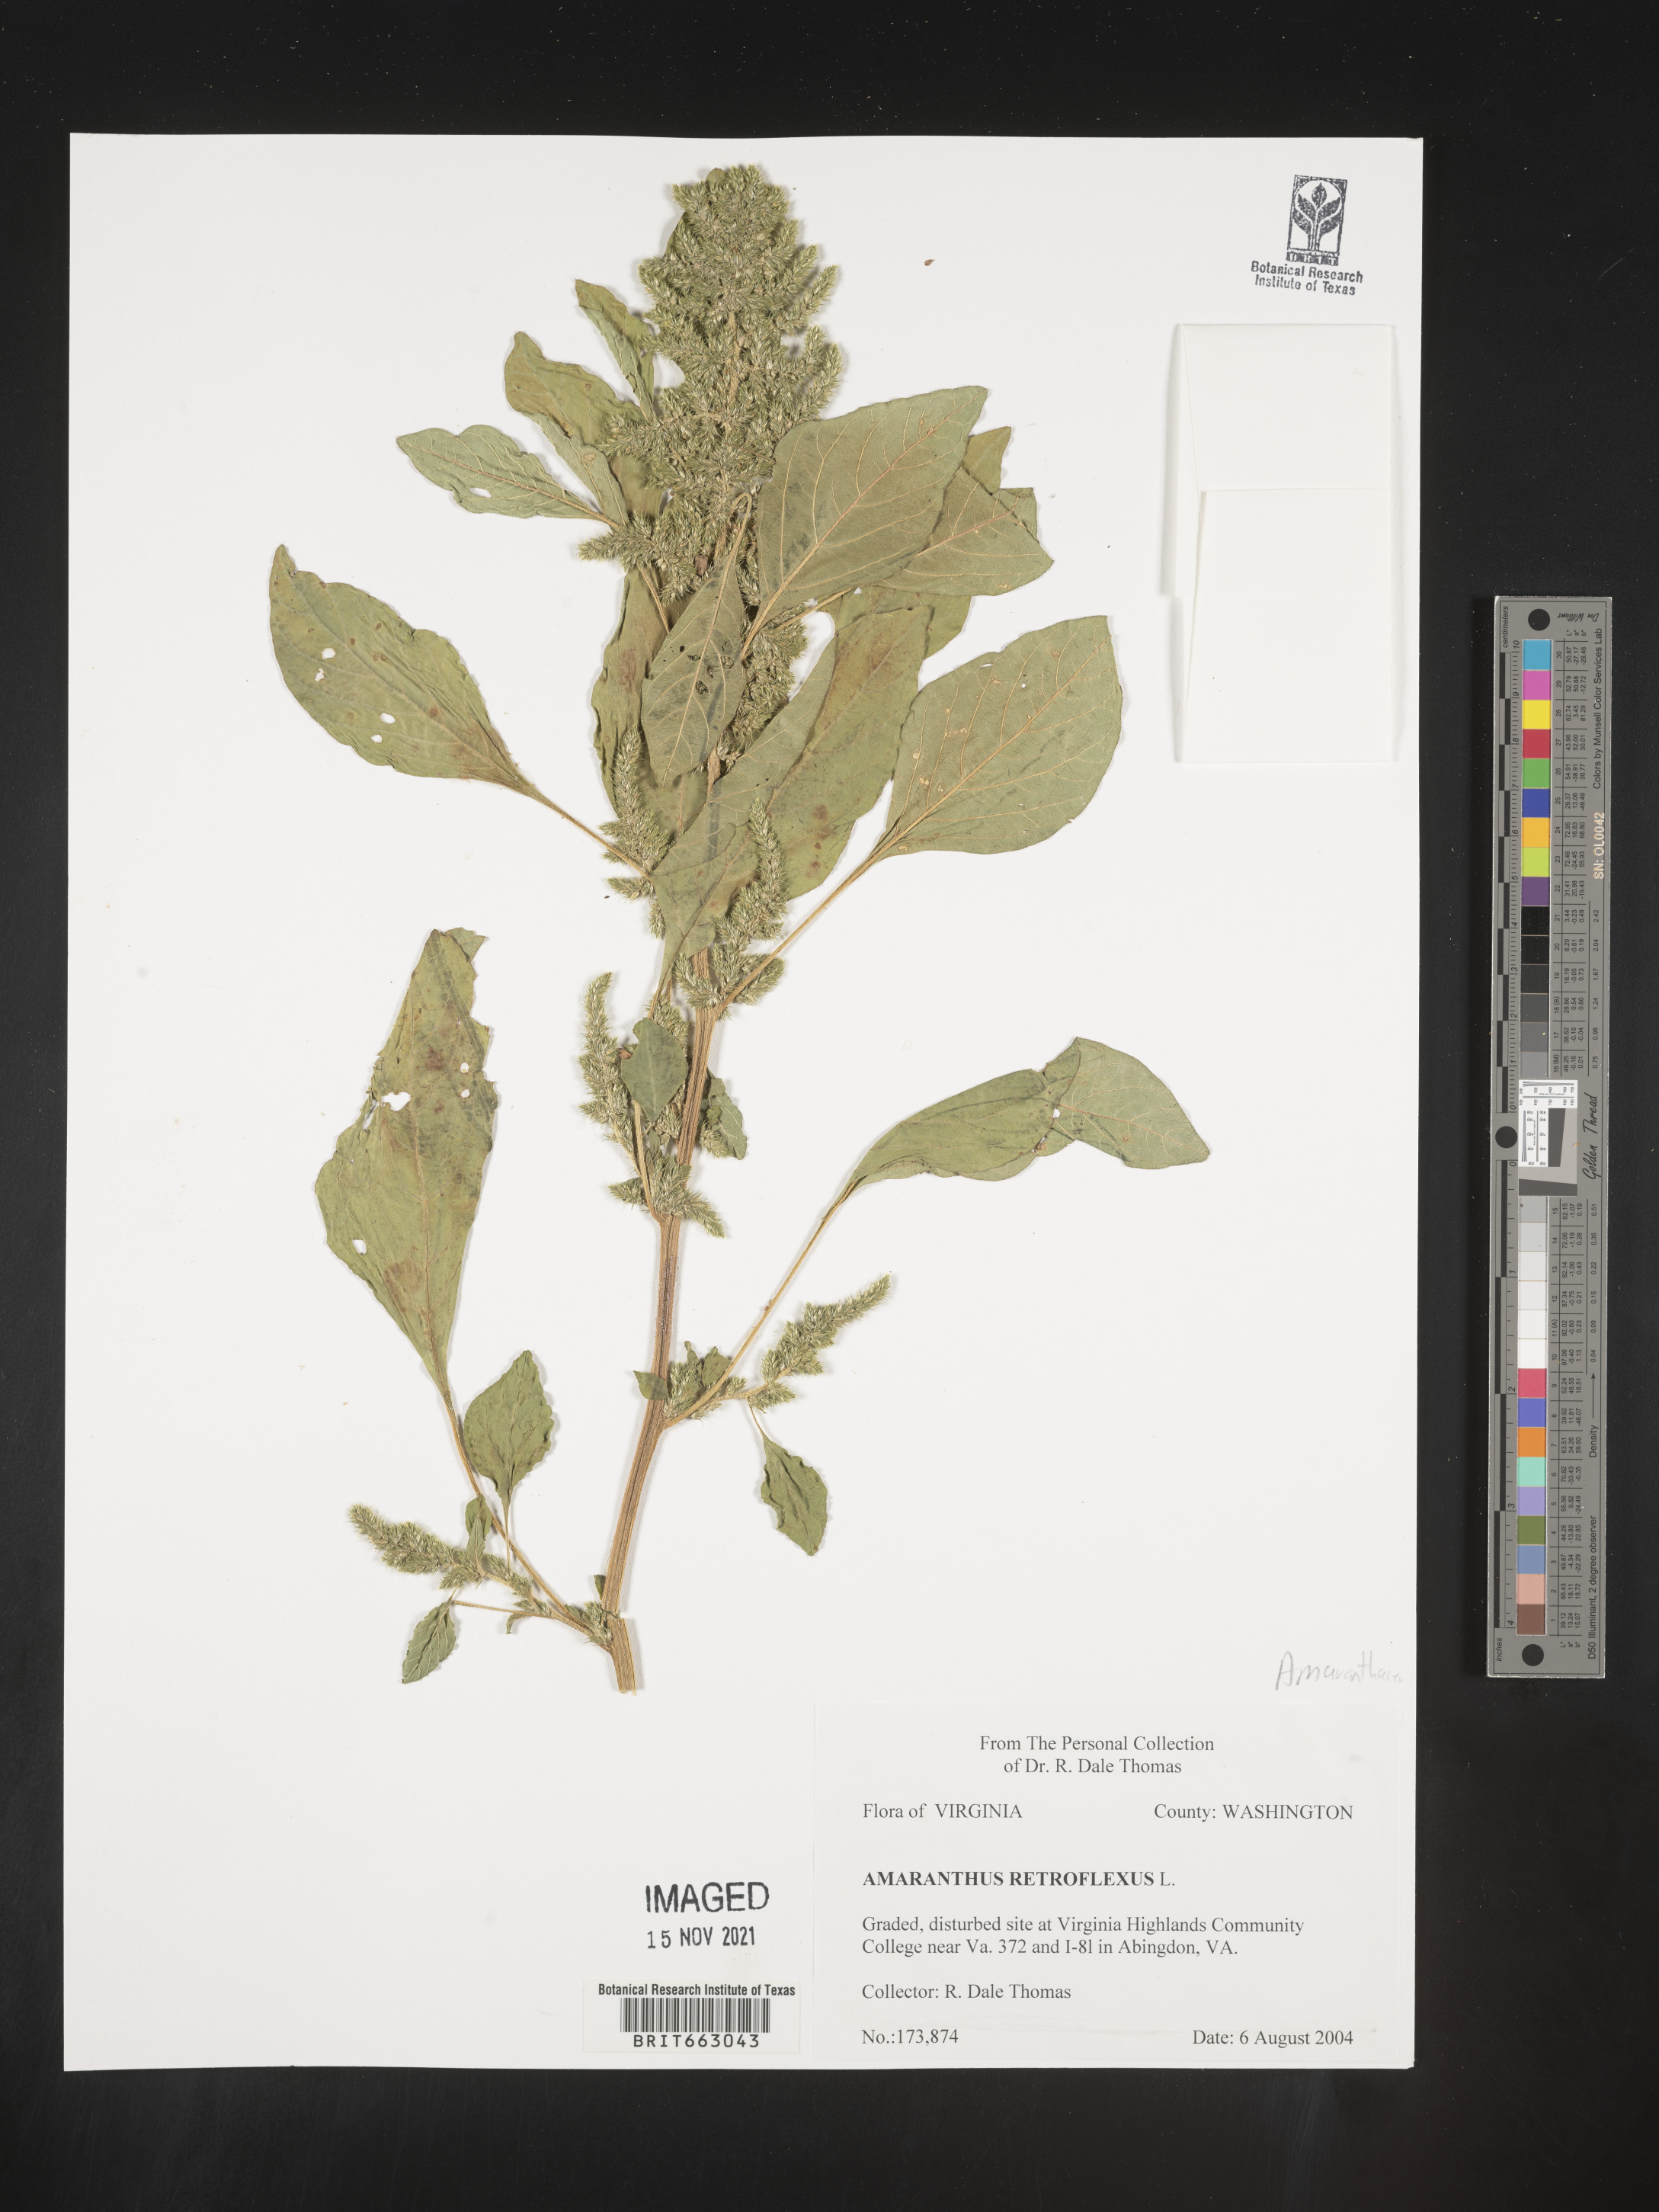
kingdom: Plantae
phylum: Tracheophyta
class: Magnoliopsida
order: Caryophyllales
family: Amaranthaceae
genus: Amaranthus
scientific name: Amaranthus retroflexus
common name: Redroot amaranth
